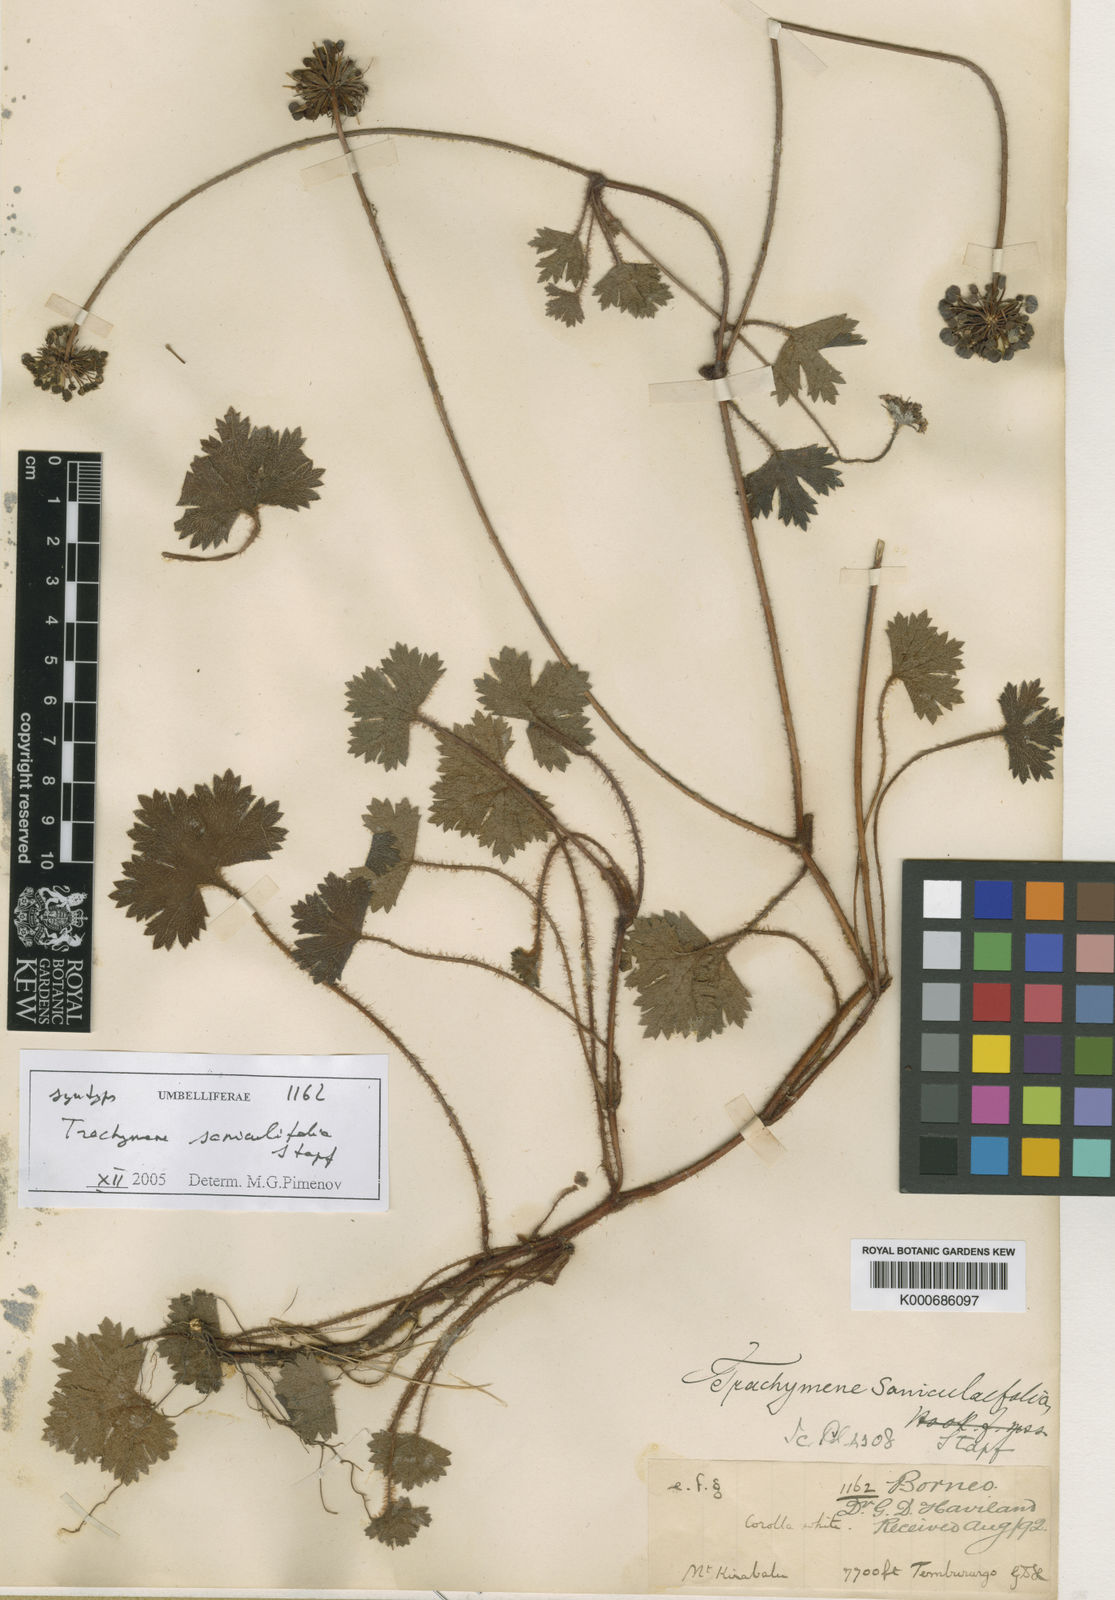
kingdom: Plantae
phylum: Tracheophyta
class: Magnoliopsida
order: Apiales
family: Araliaceae
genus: Trachymene
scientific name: Trachymene saniculifolia
